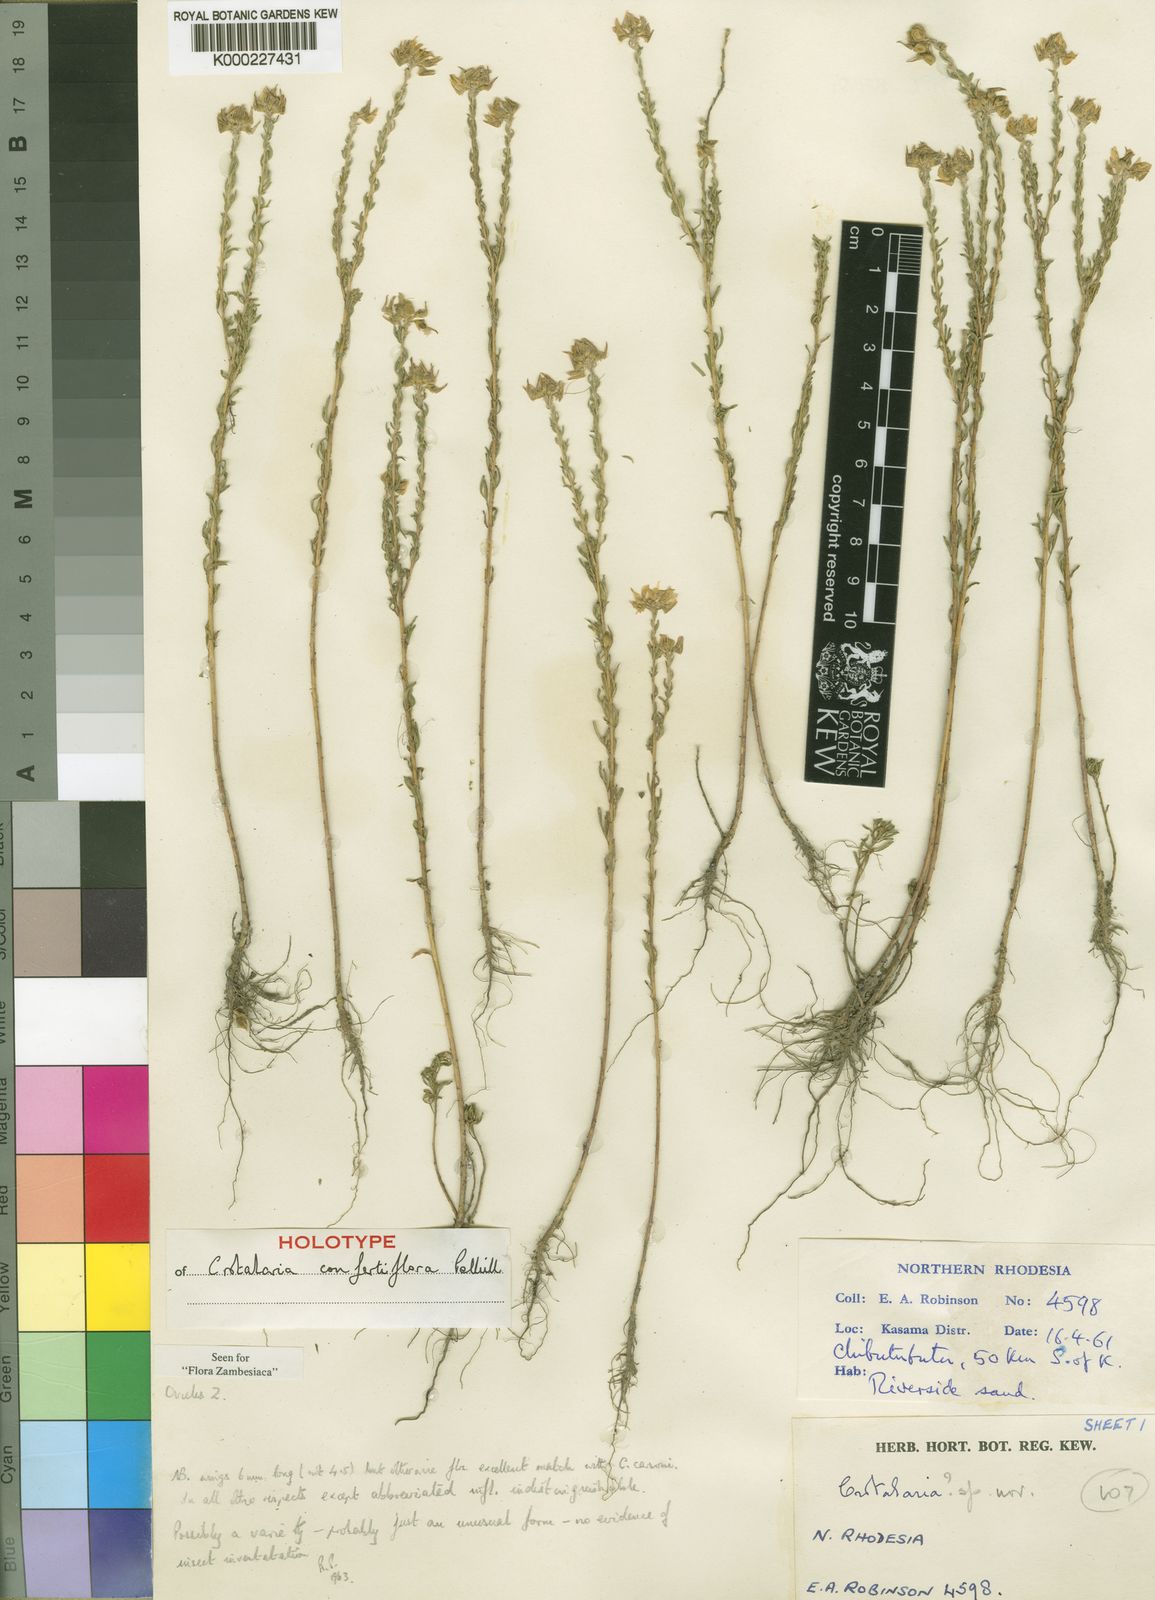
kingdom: Plantae
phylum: Tracheophyta
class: Magnoliopsida
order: Fabales
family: Fabaceae
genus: Crotalaria
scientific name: Crotalaria confertiflora
